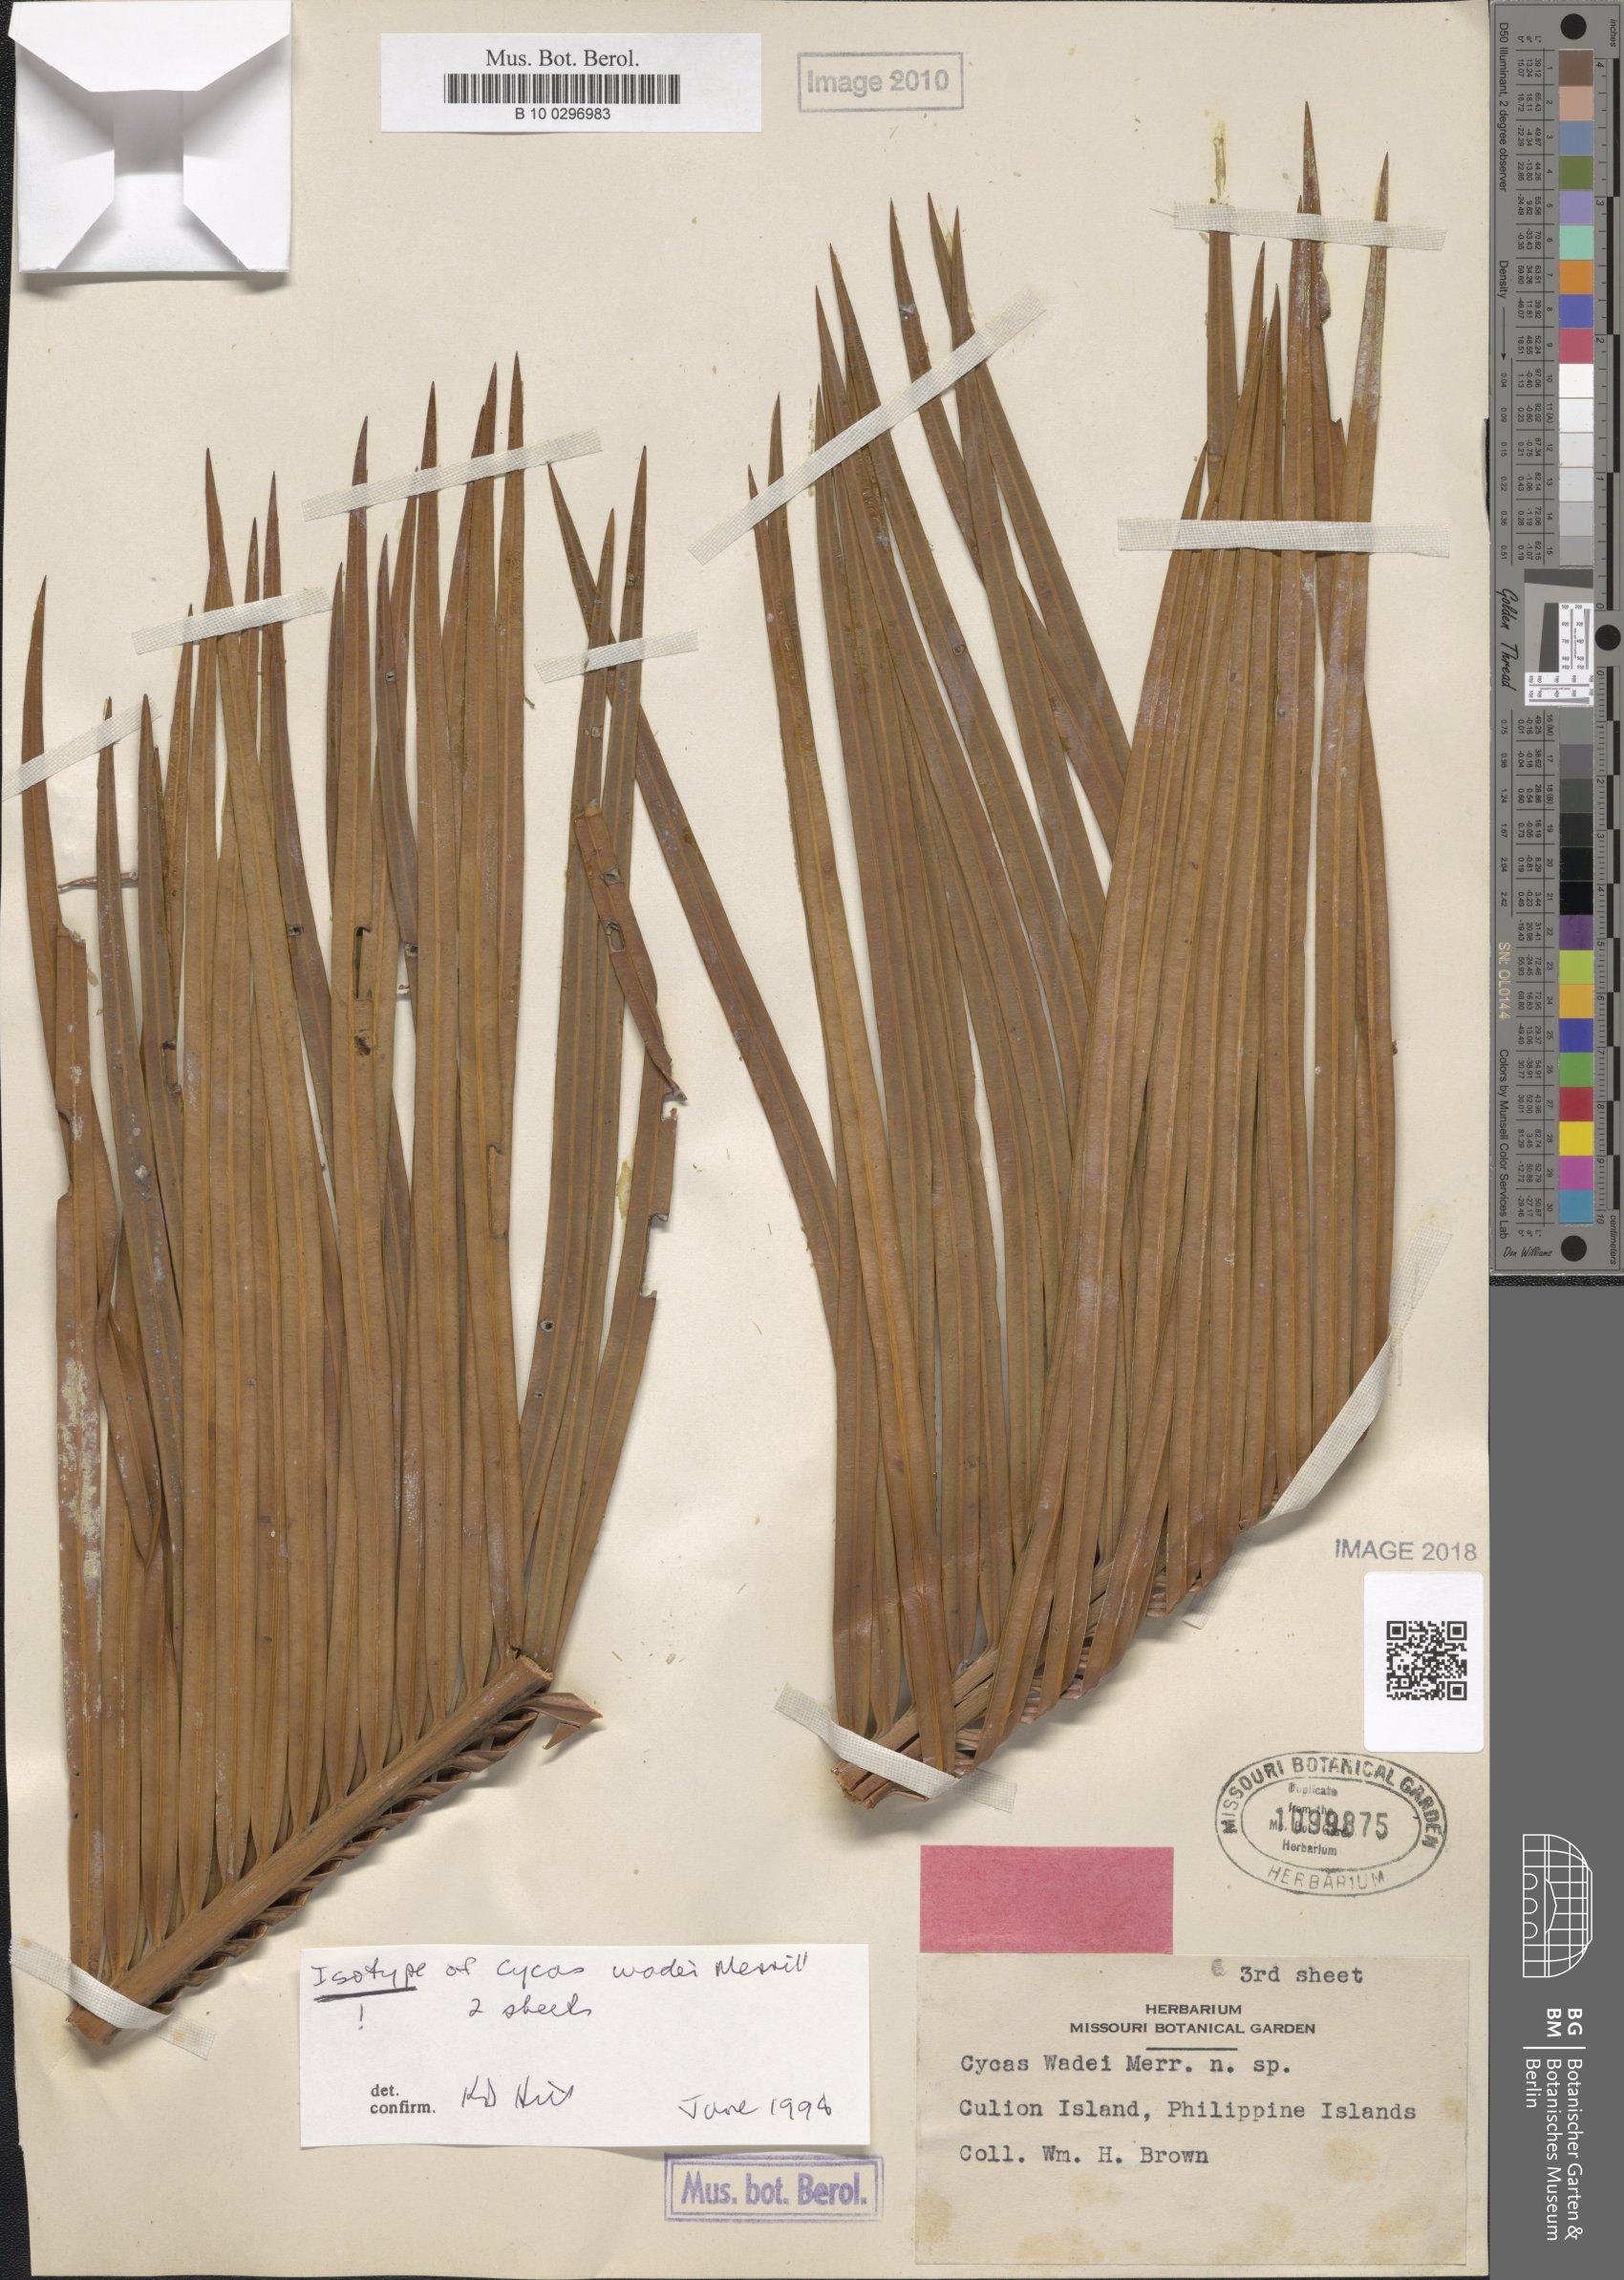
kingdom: Plantae
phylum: Tracheophyta
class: Cycadopsida
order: Cycadales
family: Cycadaceae
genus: Cycas
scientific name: Cycas wadei
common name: Wade’s pitogo
